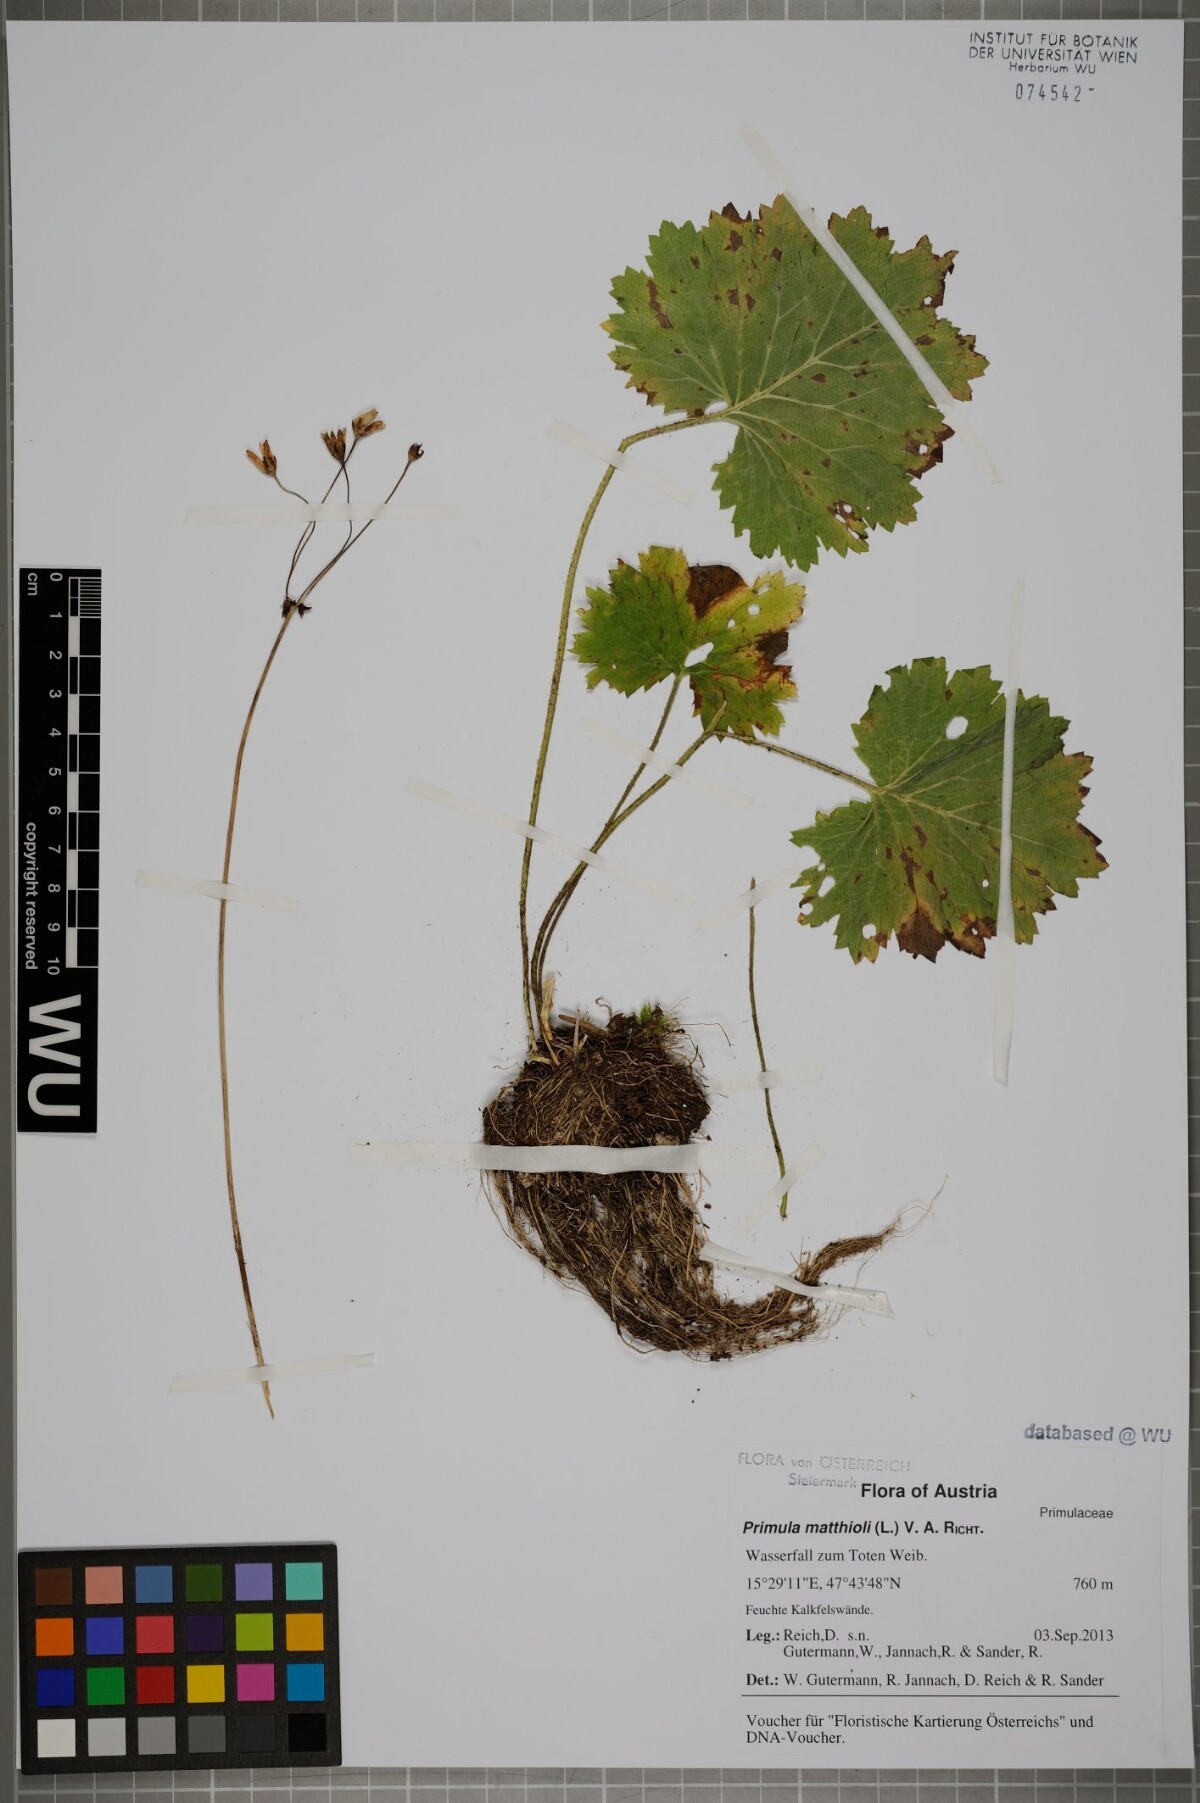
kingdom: Plantae
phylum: Tracheophyta
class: Magnoliopsida
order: Ericales
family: Primulaceae
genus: Primula
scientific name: Primula matthioli
